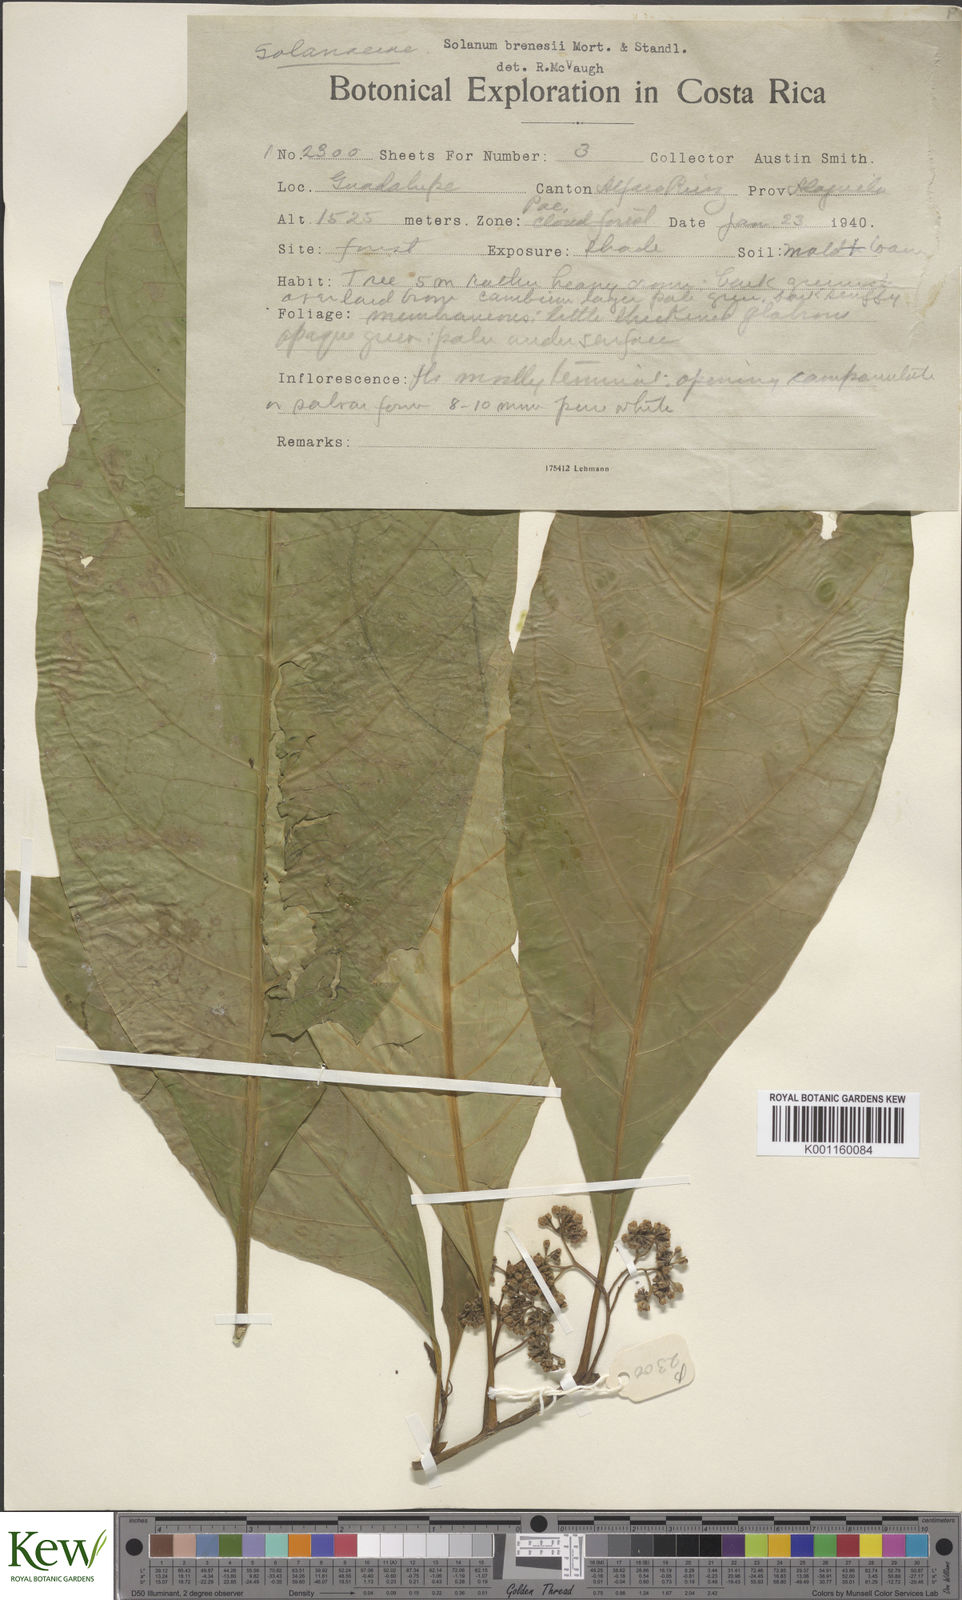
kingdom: Plantae
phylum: Tracheophyta
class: Magnoliopsida
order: Solanales
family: Solanaceae
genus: Solanum
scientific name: Solanum rovirosanum
